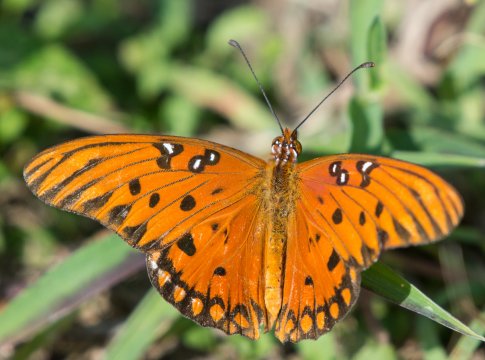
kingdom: Animalia
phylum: Arthropoda
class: Insecta
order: Lepidoptera
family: Nymphalidae
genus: Dione
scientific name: Dione vanillae
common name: Gulf Fritillary
